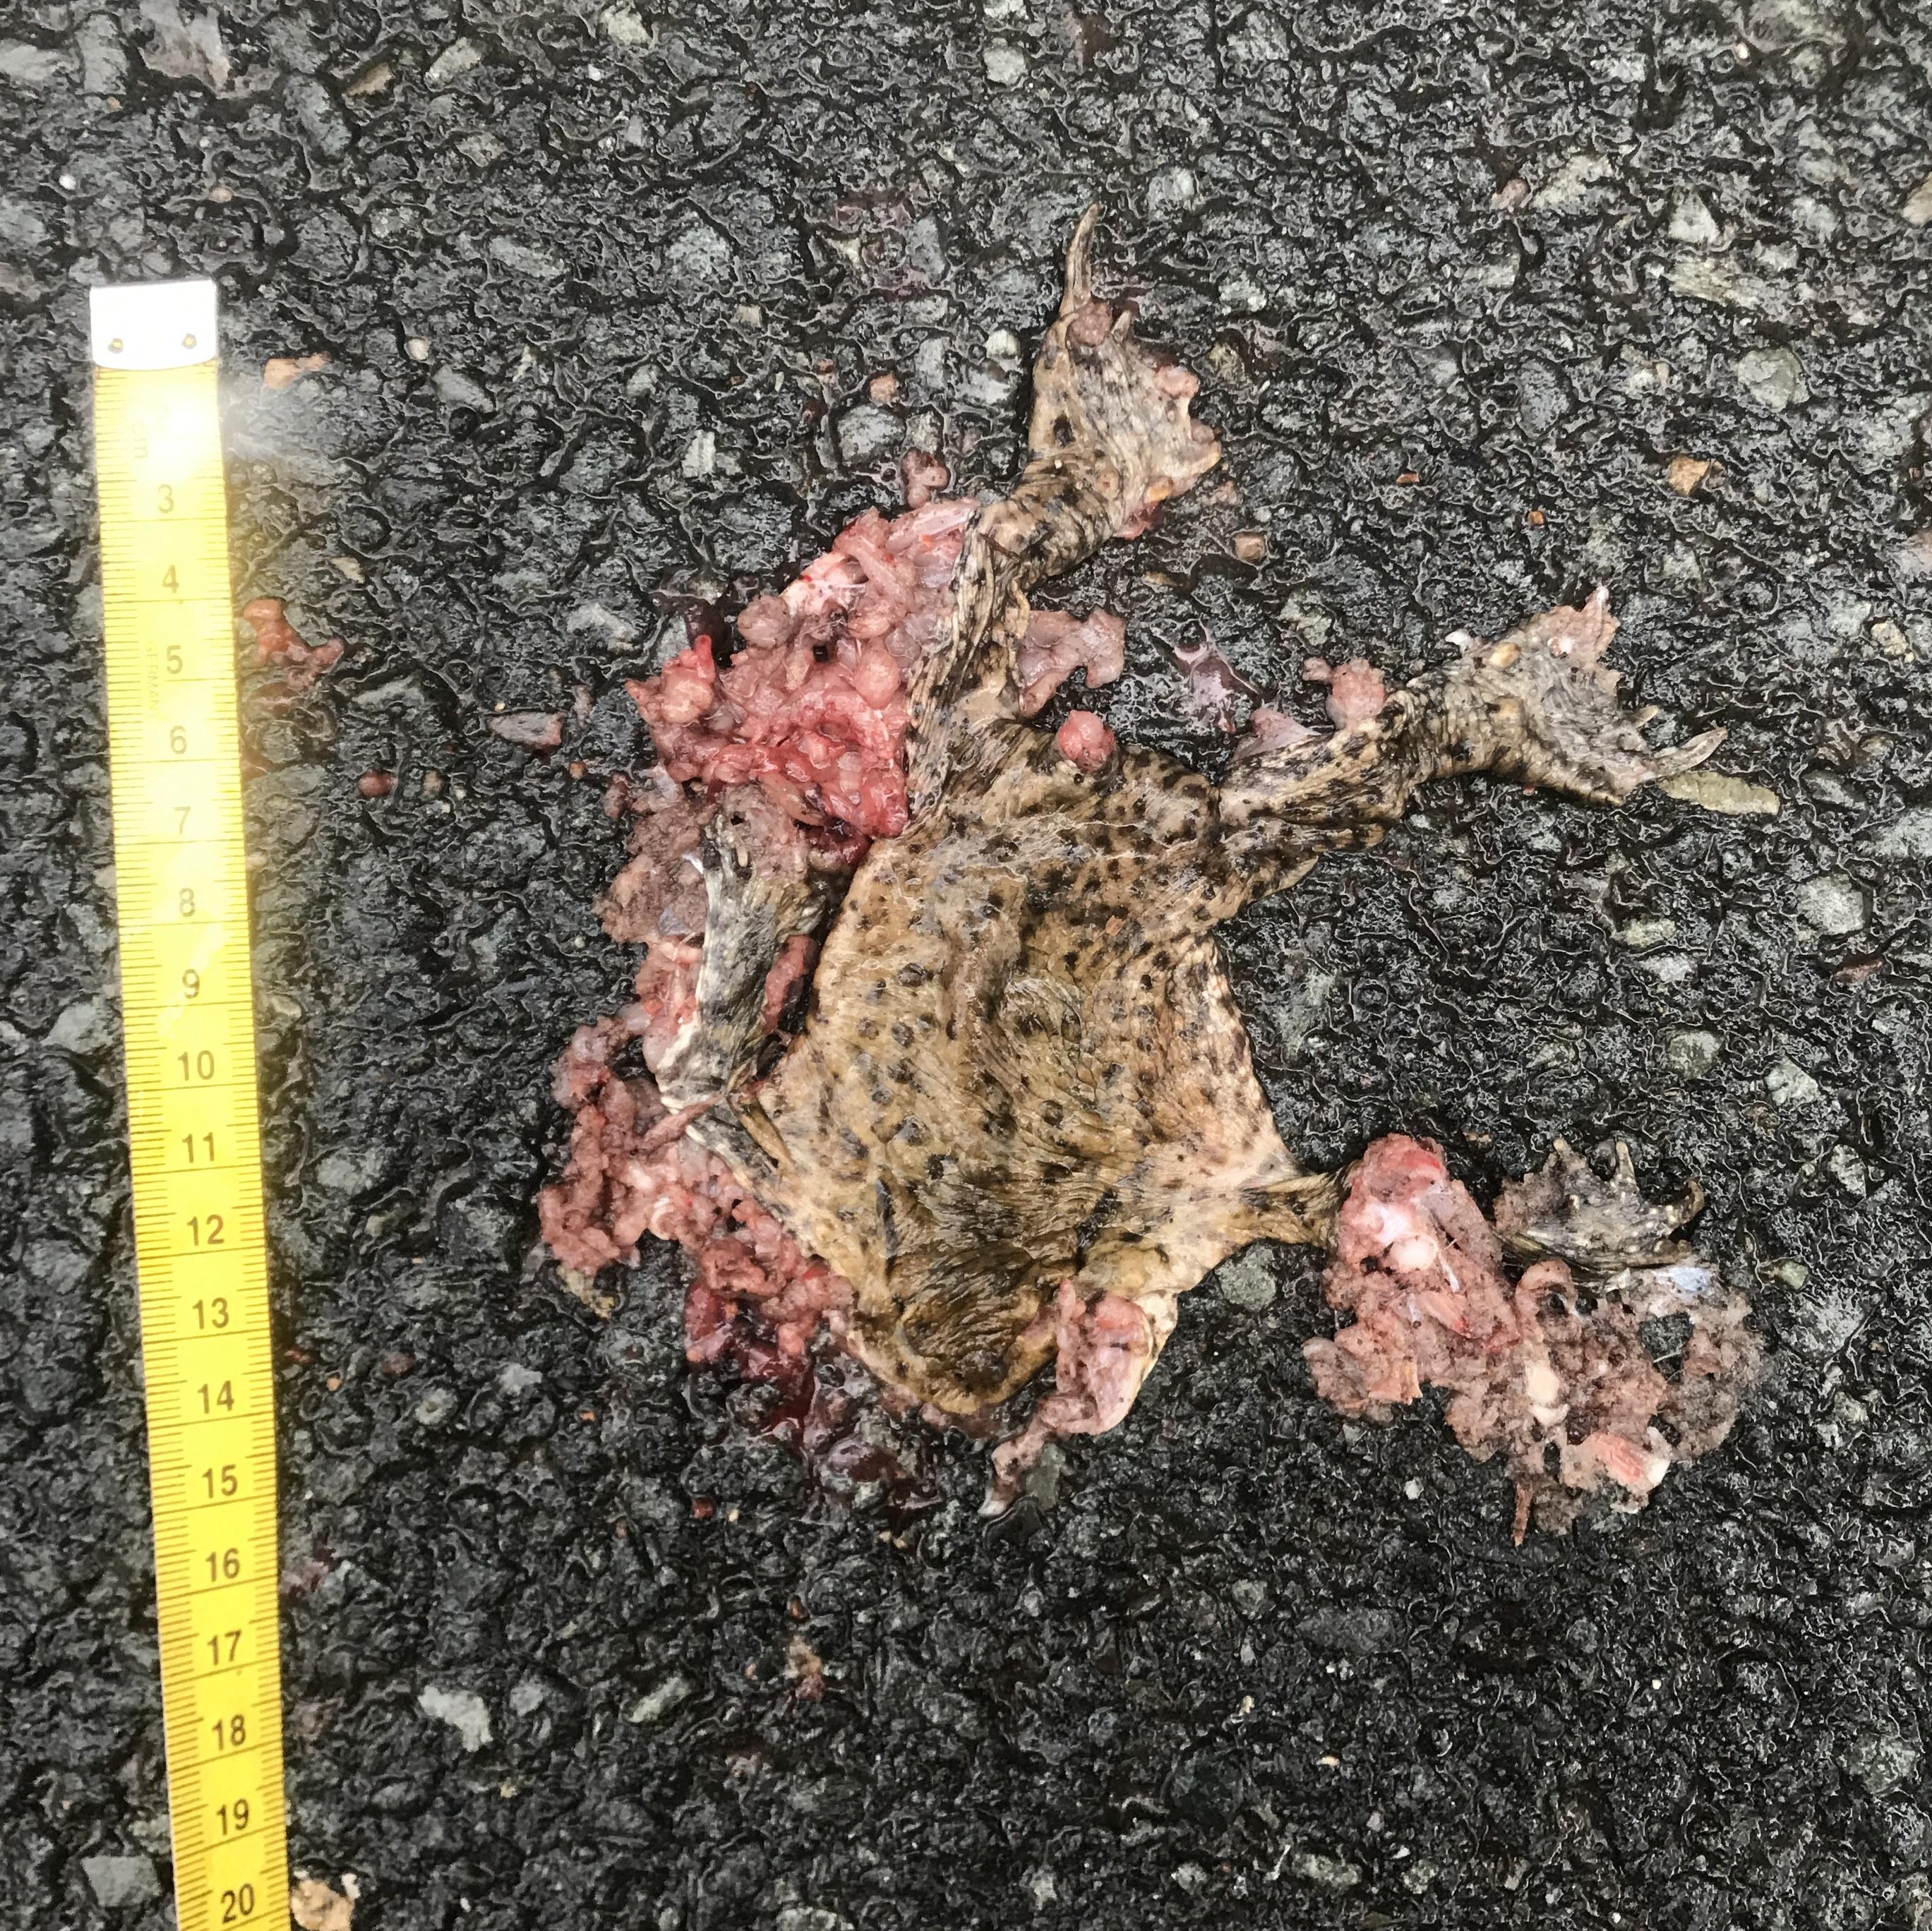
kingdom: Animalia
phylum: Chordata
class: Amphibia
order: Anura
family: Bufonidae
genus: Bufo
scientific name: Bufo bufo
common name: Common toad
